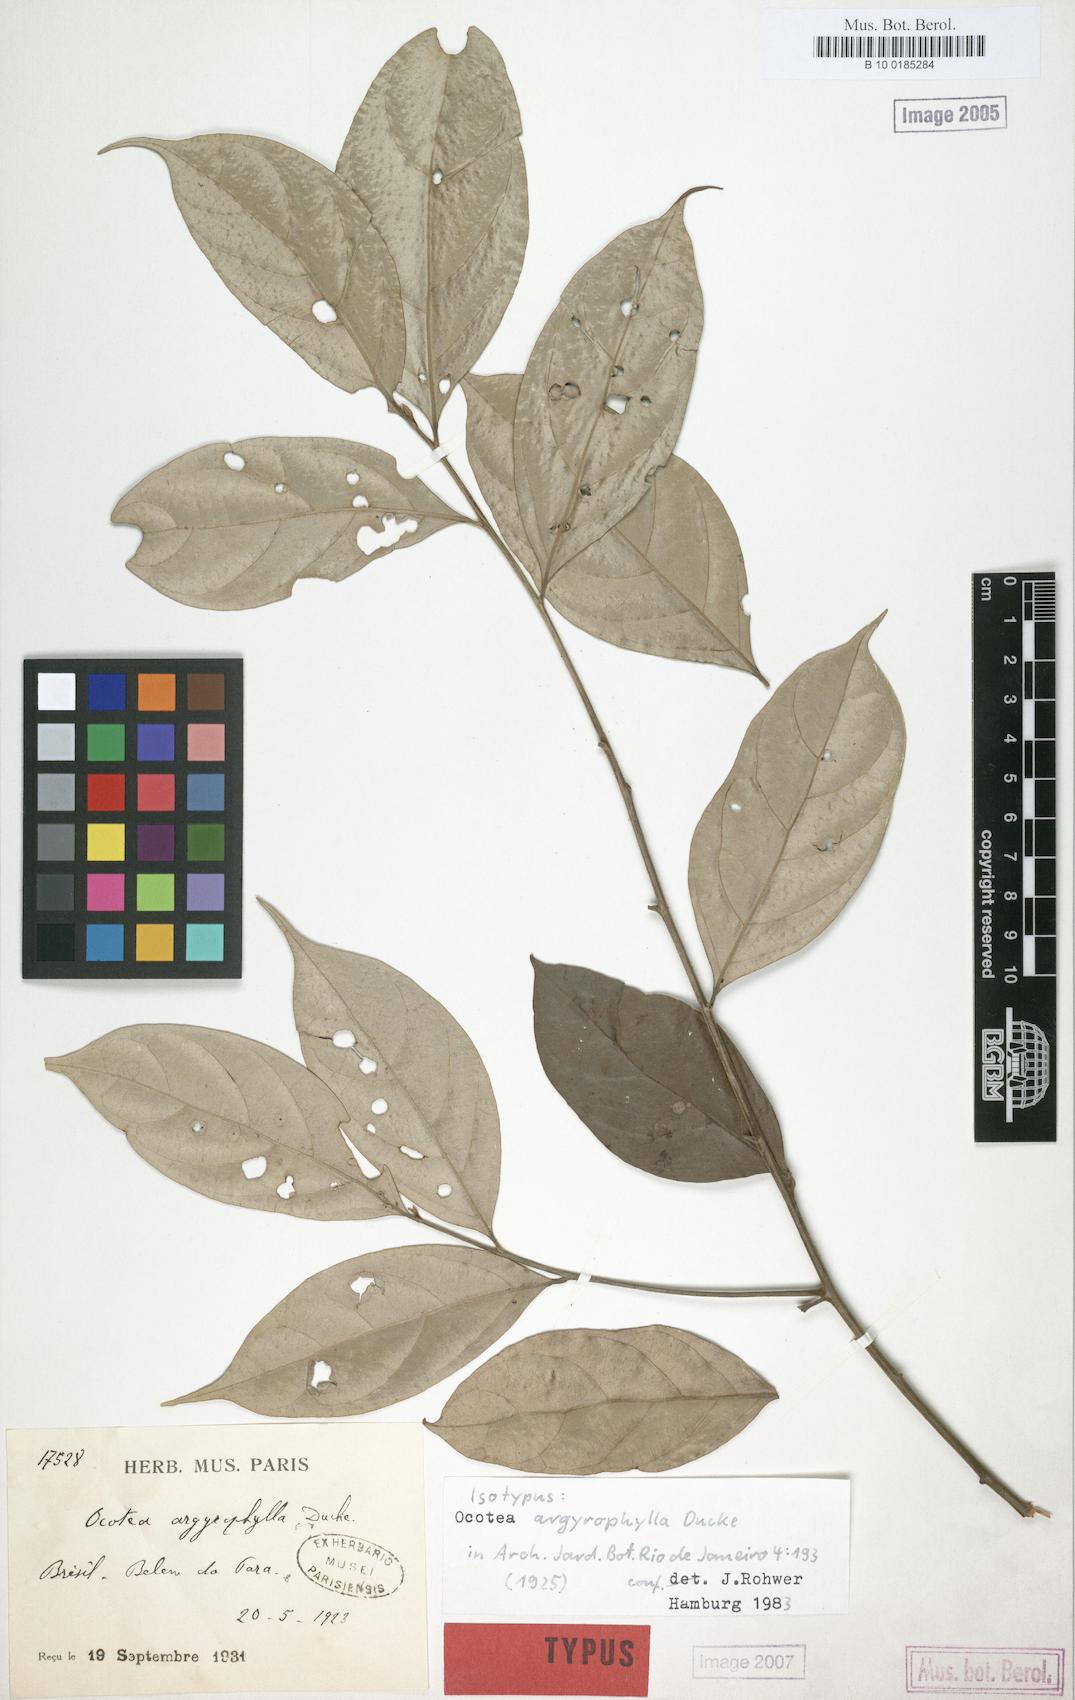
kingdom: Plantae
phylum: Tracheophyta
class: Magnoliopsida
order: Laurales
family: Lauraceae
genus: Ocotea
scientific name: Ocotea argyrophylla
